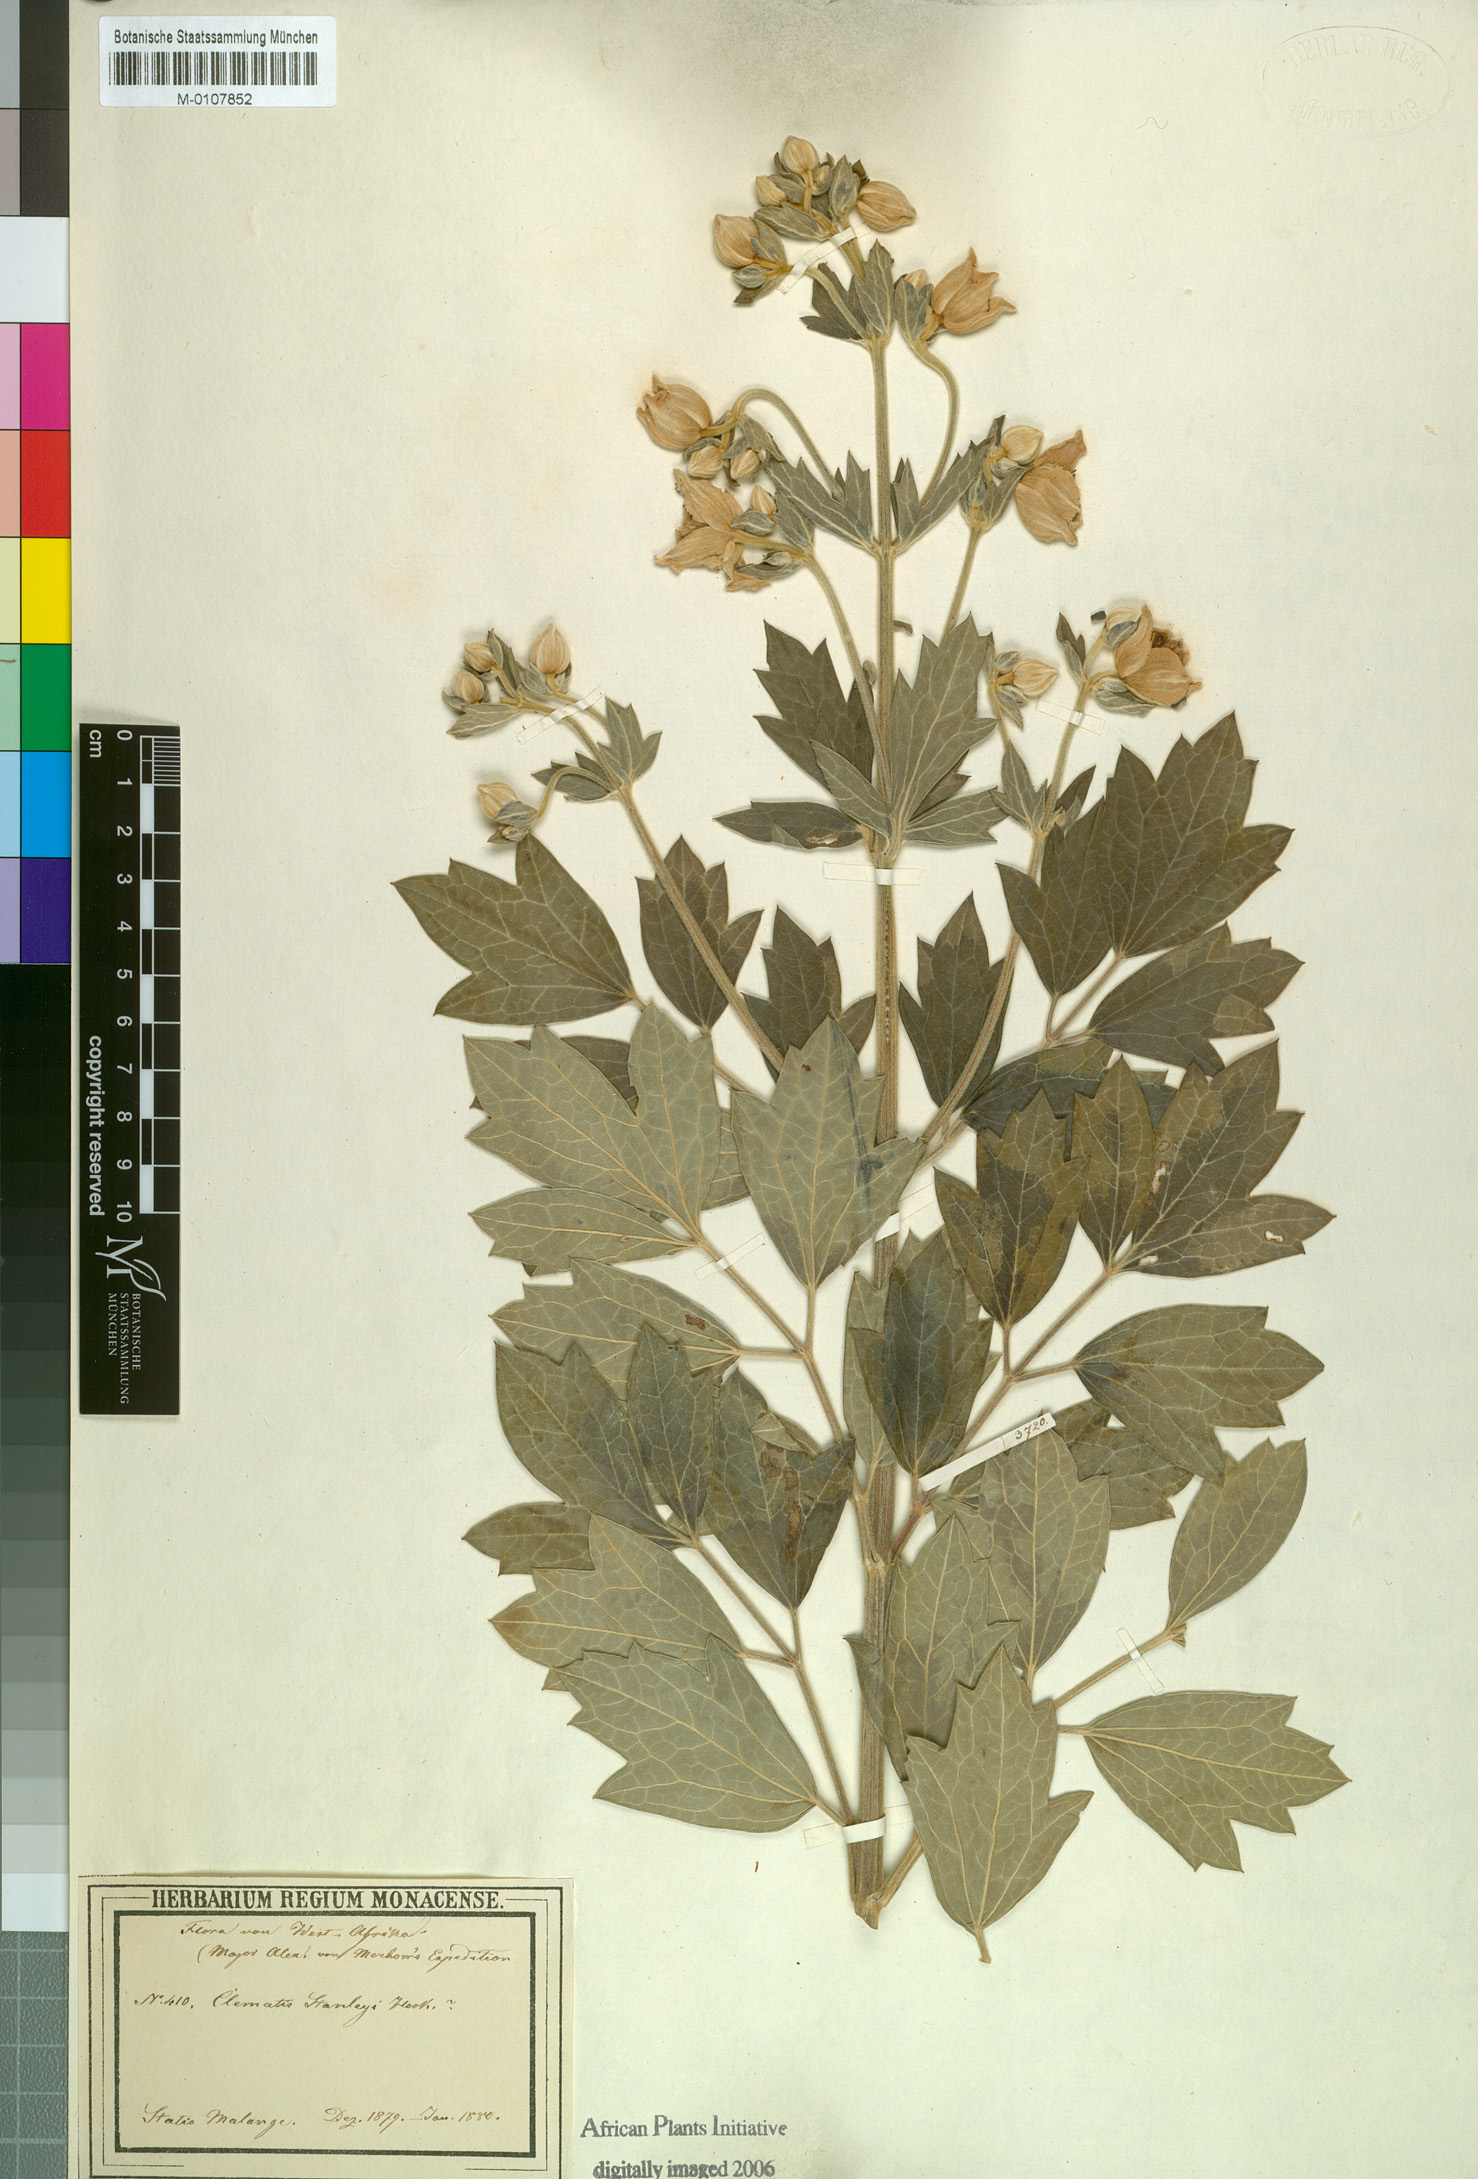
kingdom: Plantae
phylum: Tracheophyta
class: Magnoliopsida
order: Ranunculales
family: Ranunculaceae
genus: Clematis
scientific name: Clematis villosa
